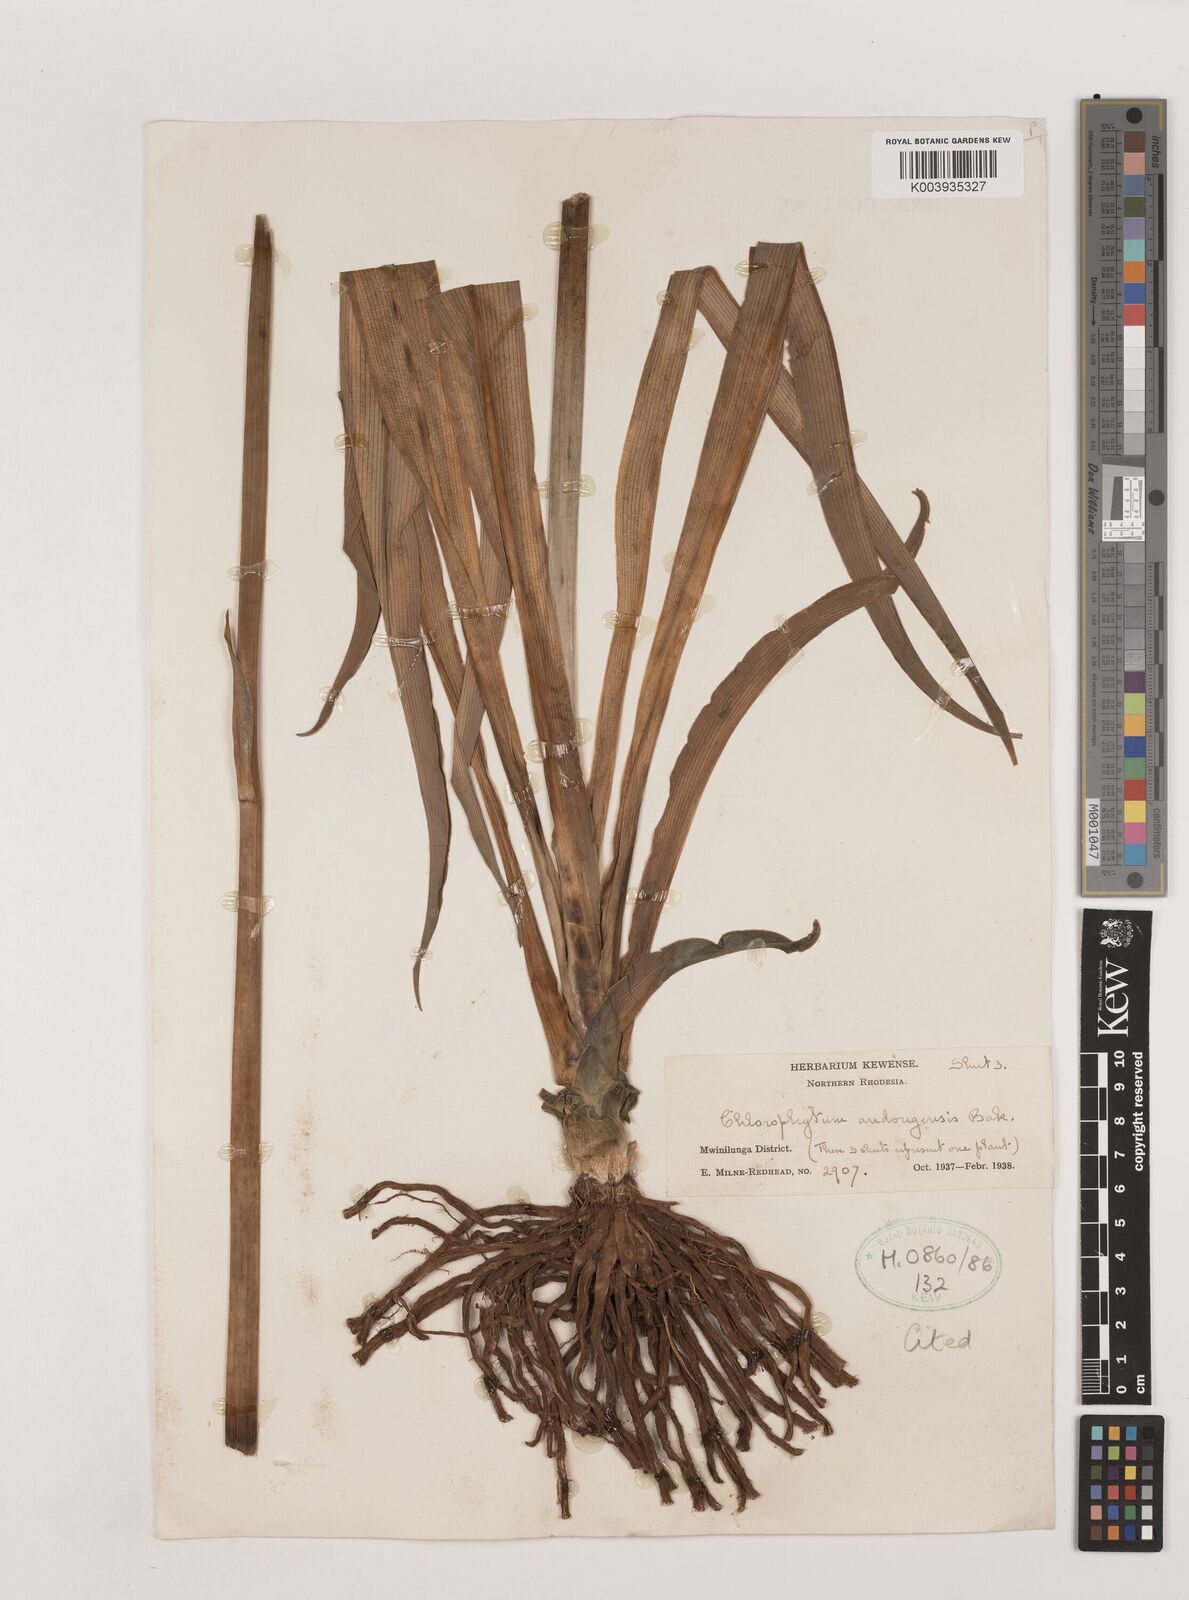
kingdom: Plantae
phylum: Tracheophyta
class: Liliopsida
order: Asparagales
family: Asparagaceae
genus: Chlorophytum
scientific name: Chlorophytum andongense
